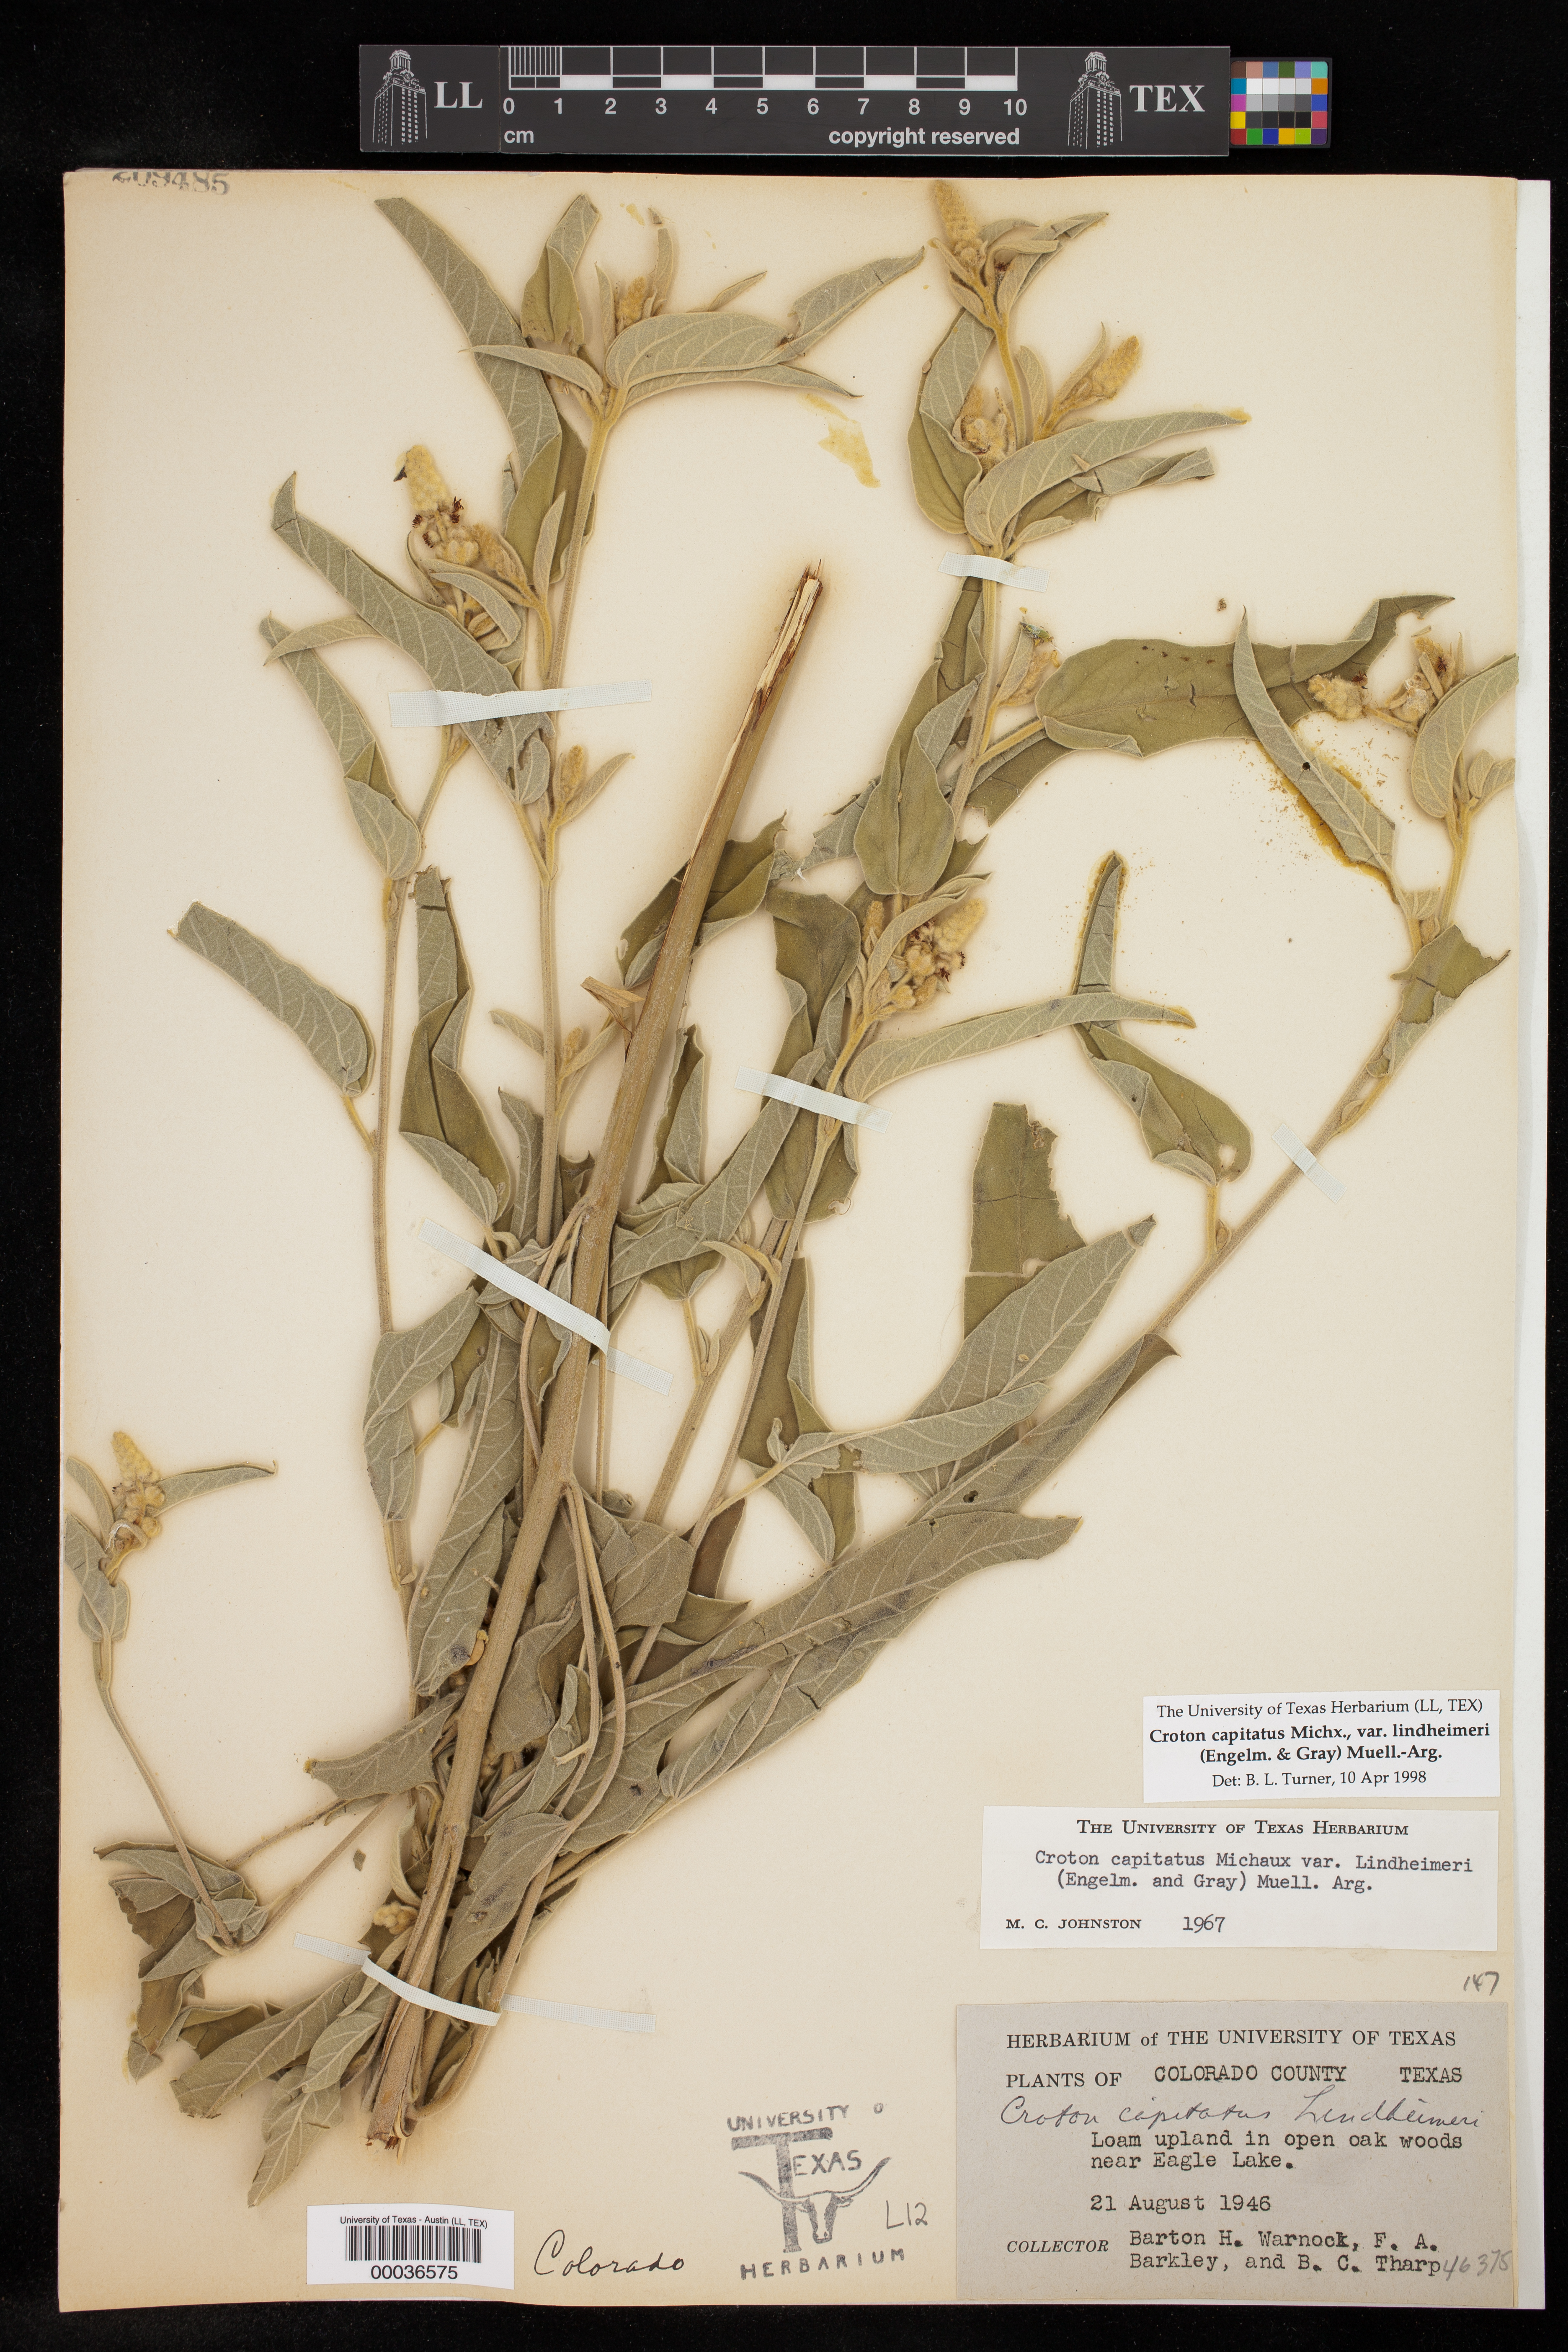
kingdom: Plantae
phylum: Tracheophyta
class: Magnoliopsida
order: Malpighiales
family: Euphorbiaceae
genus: Croton
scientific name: Croton lindheimeri
